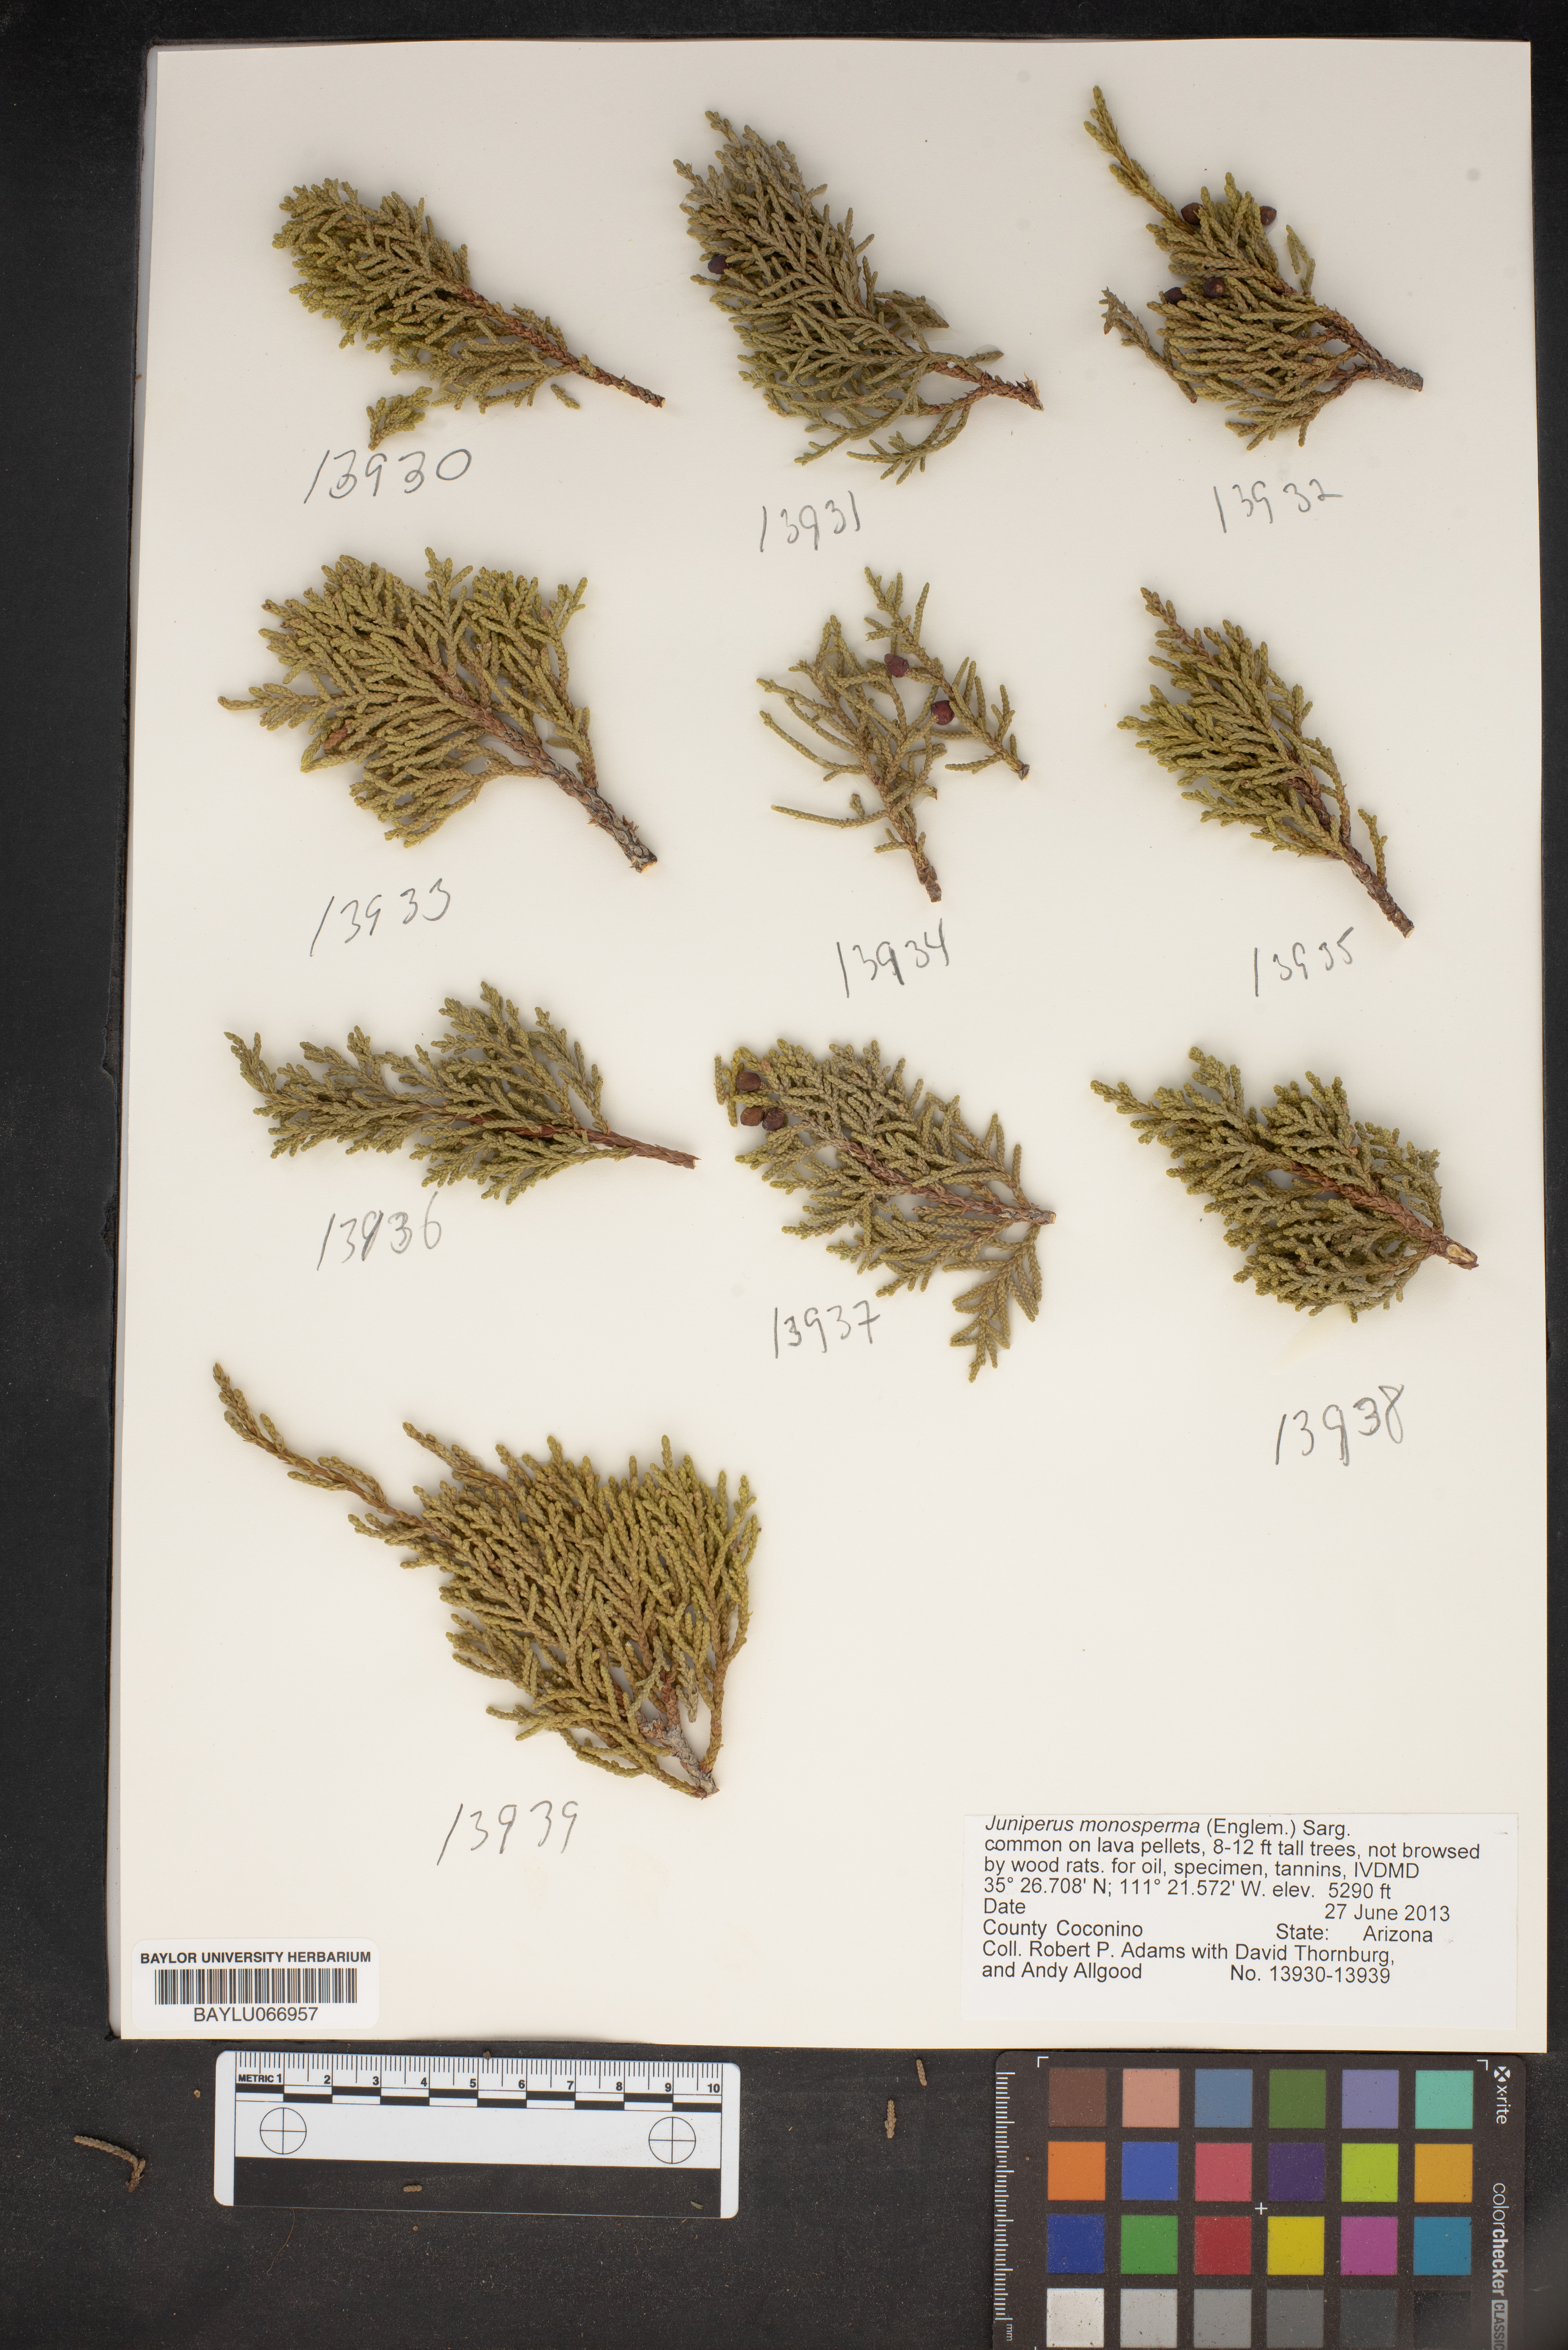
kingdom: Plantae
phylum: Tracheophyta
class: Pinopsida
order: Pinales
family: Cupressaceae
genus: Juniperus
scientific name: Juniperus monosperma
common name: One-seed juniper
